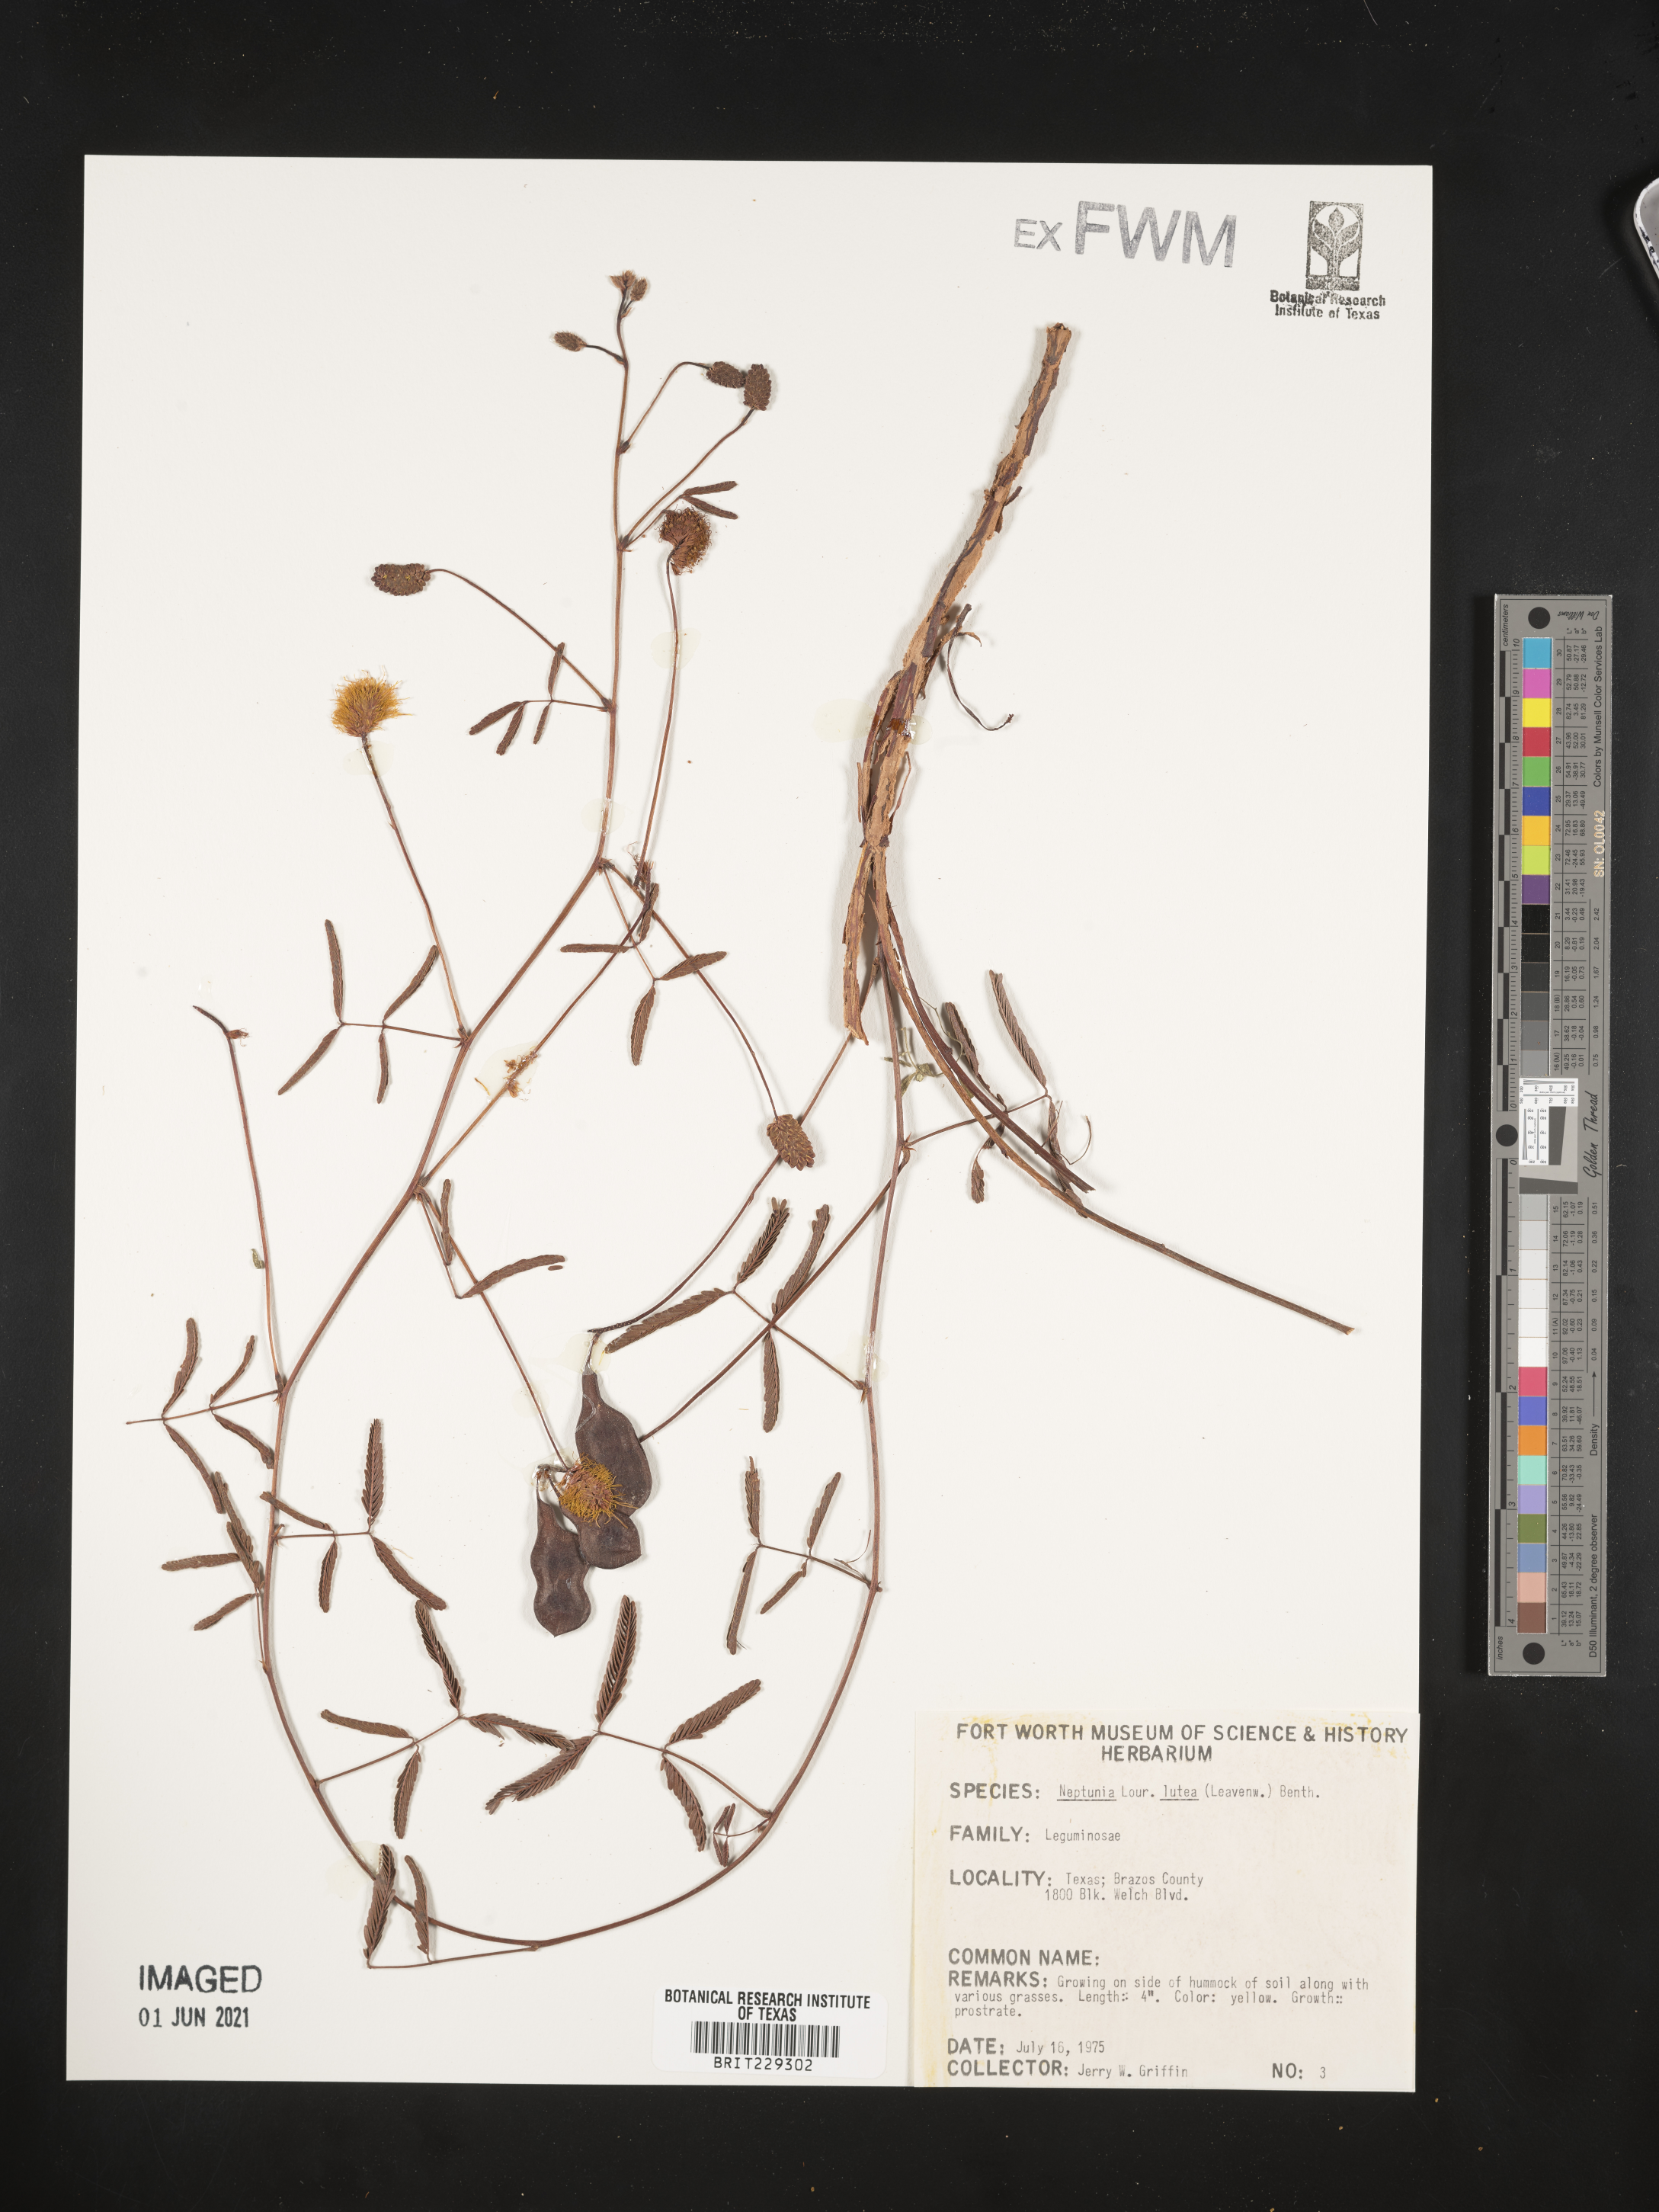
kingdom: Plantae
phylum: Tracheophyta
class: Magnoliopsida
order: Fabales
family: Fabaceae
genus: Neptunia
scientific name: Neptunia lutea
